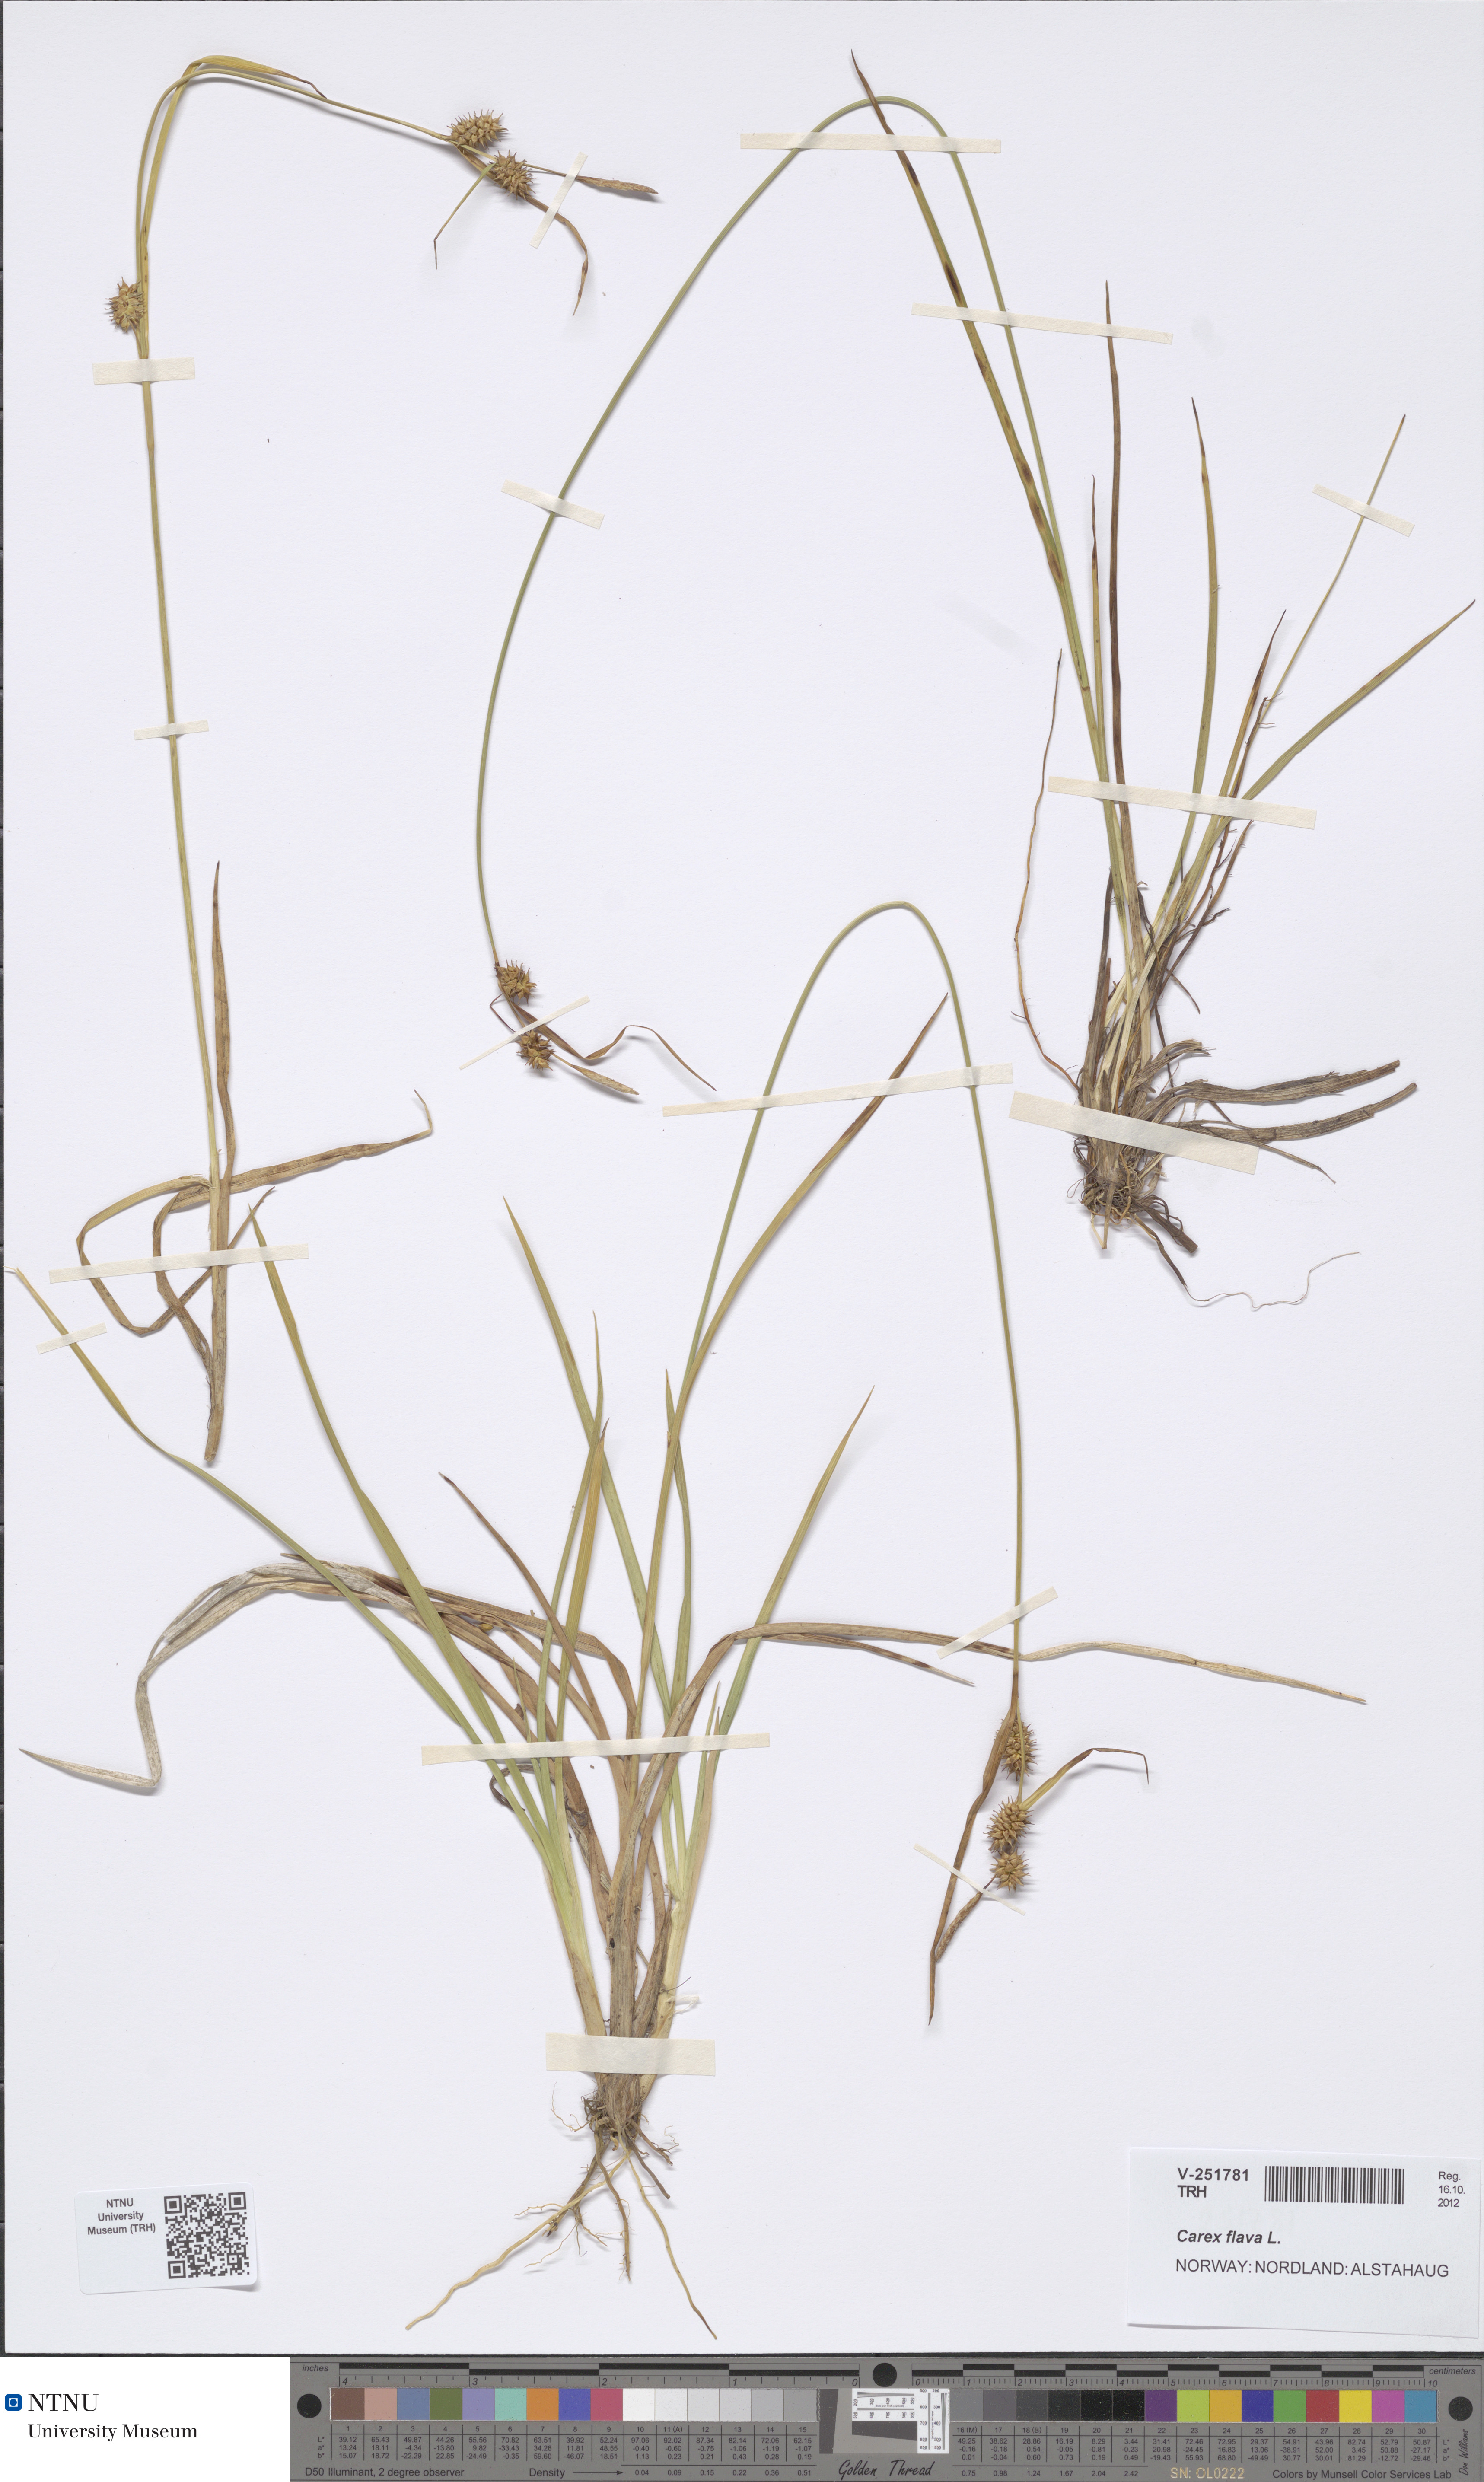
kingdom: Plantae
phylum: Tracheophyta
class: Liliopsida
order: Poales
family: Cyperaceae
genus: Carex
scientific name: Carex flava
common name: Large yellow-sedge
